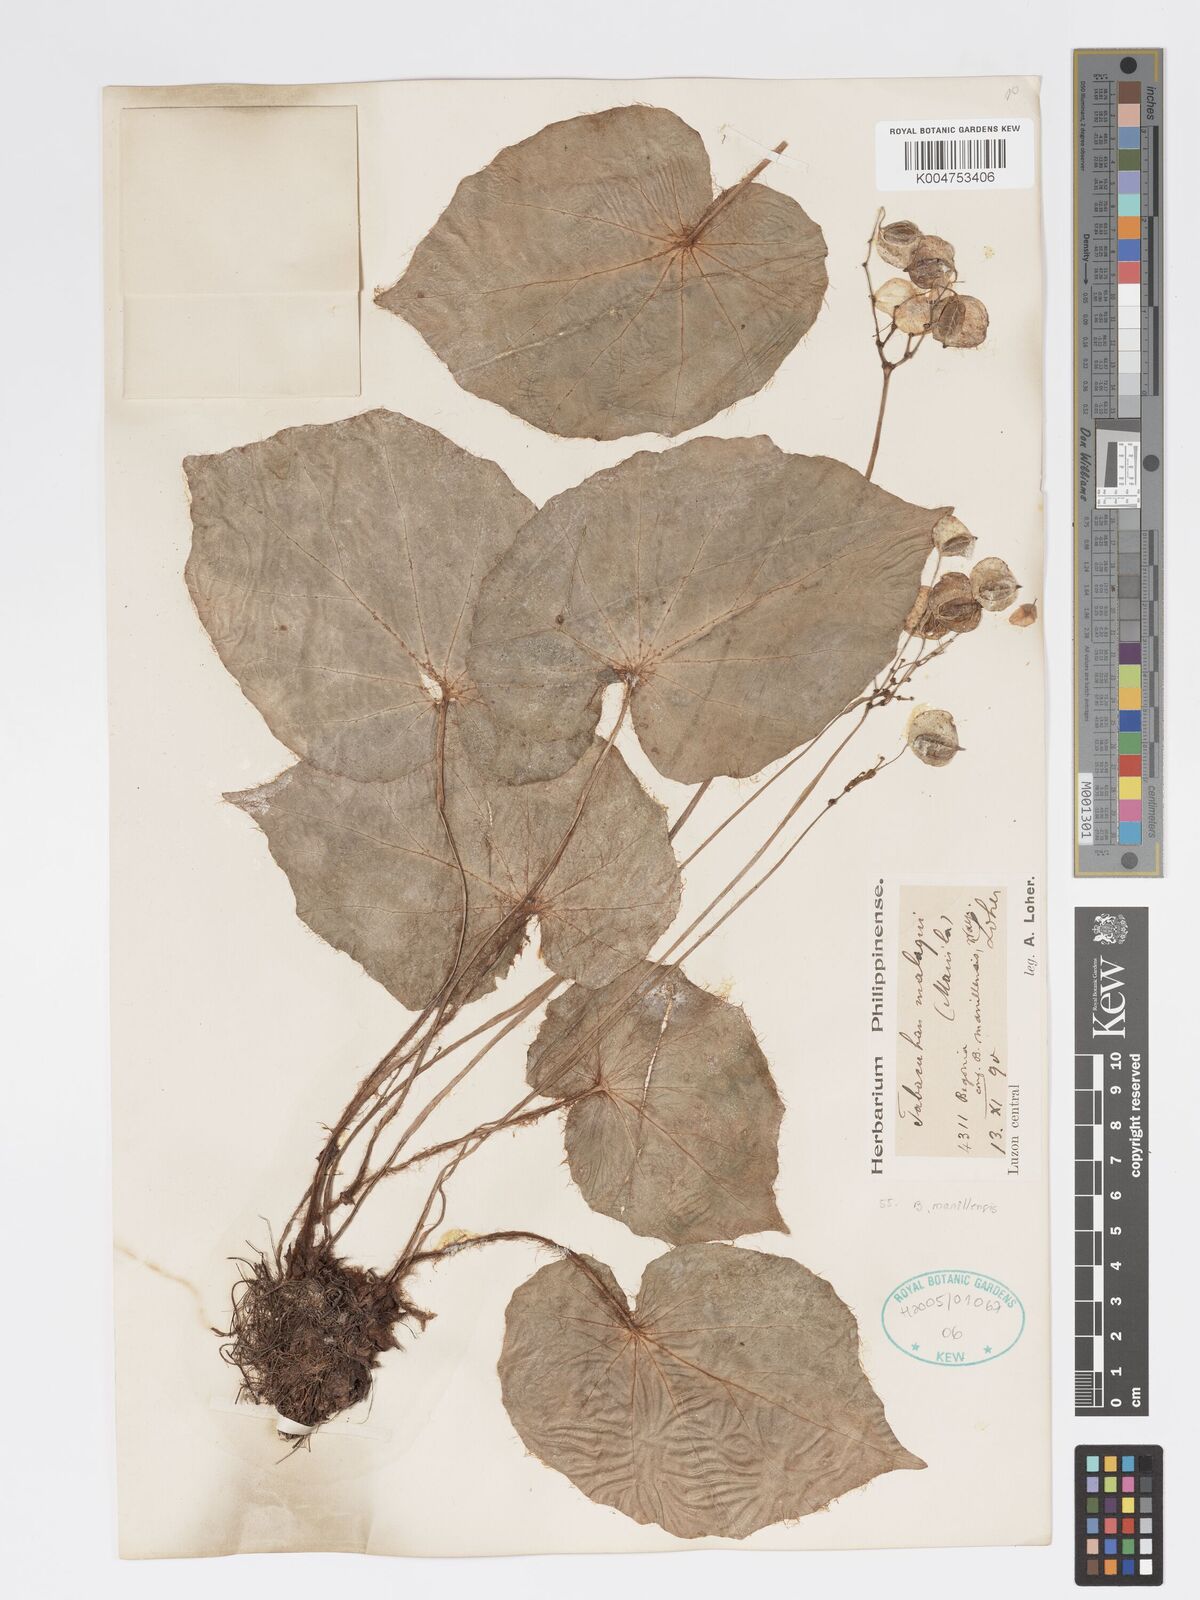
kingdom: Plantae
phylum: Tracheophyta
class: Magnoliopsida
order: Cucurbitales
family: Begoniaceae
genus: Begonia
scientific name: Begonia manillensis
